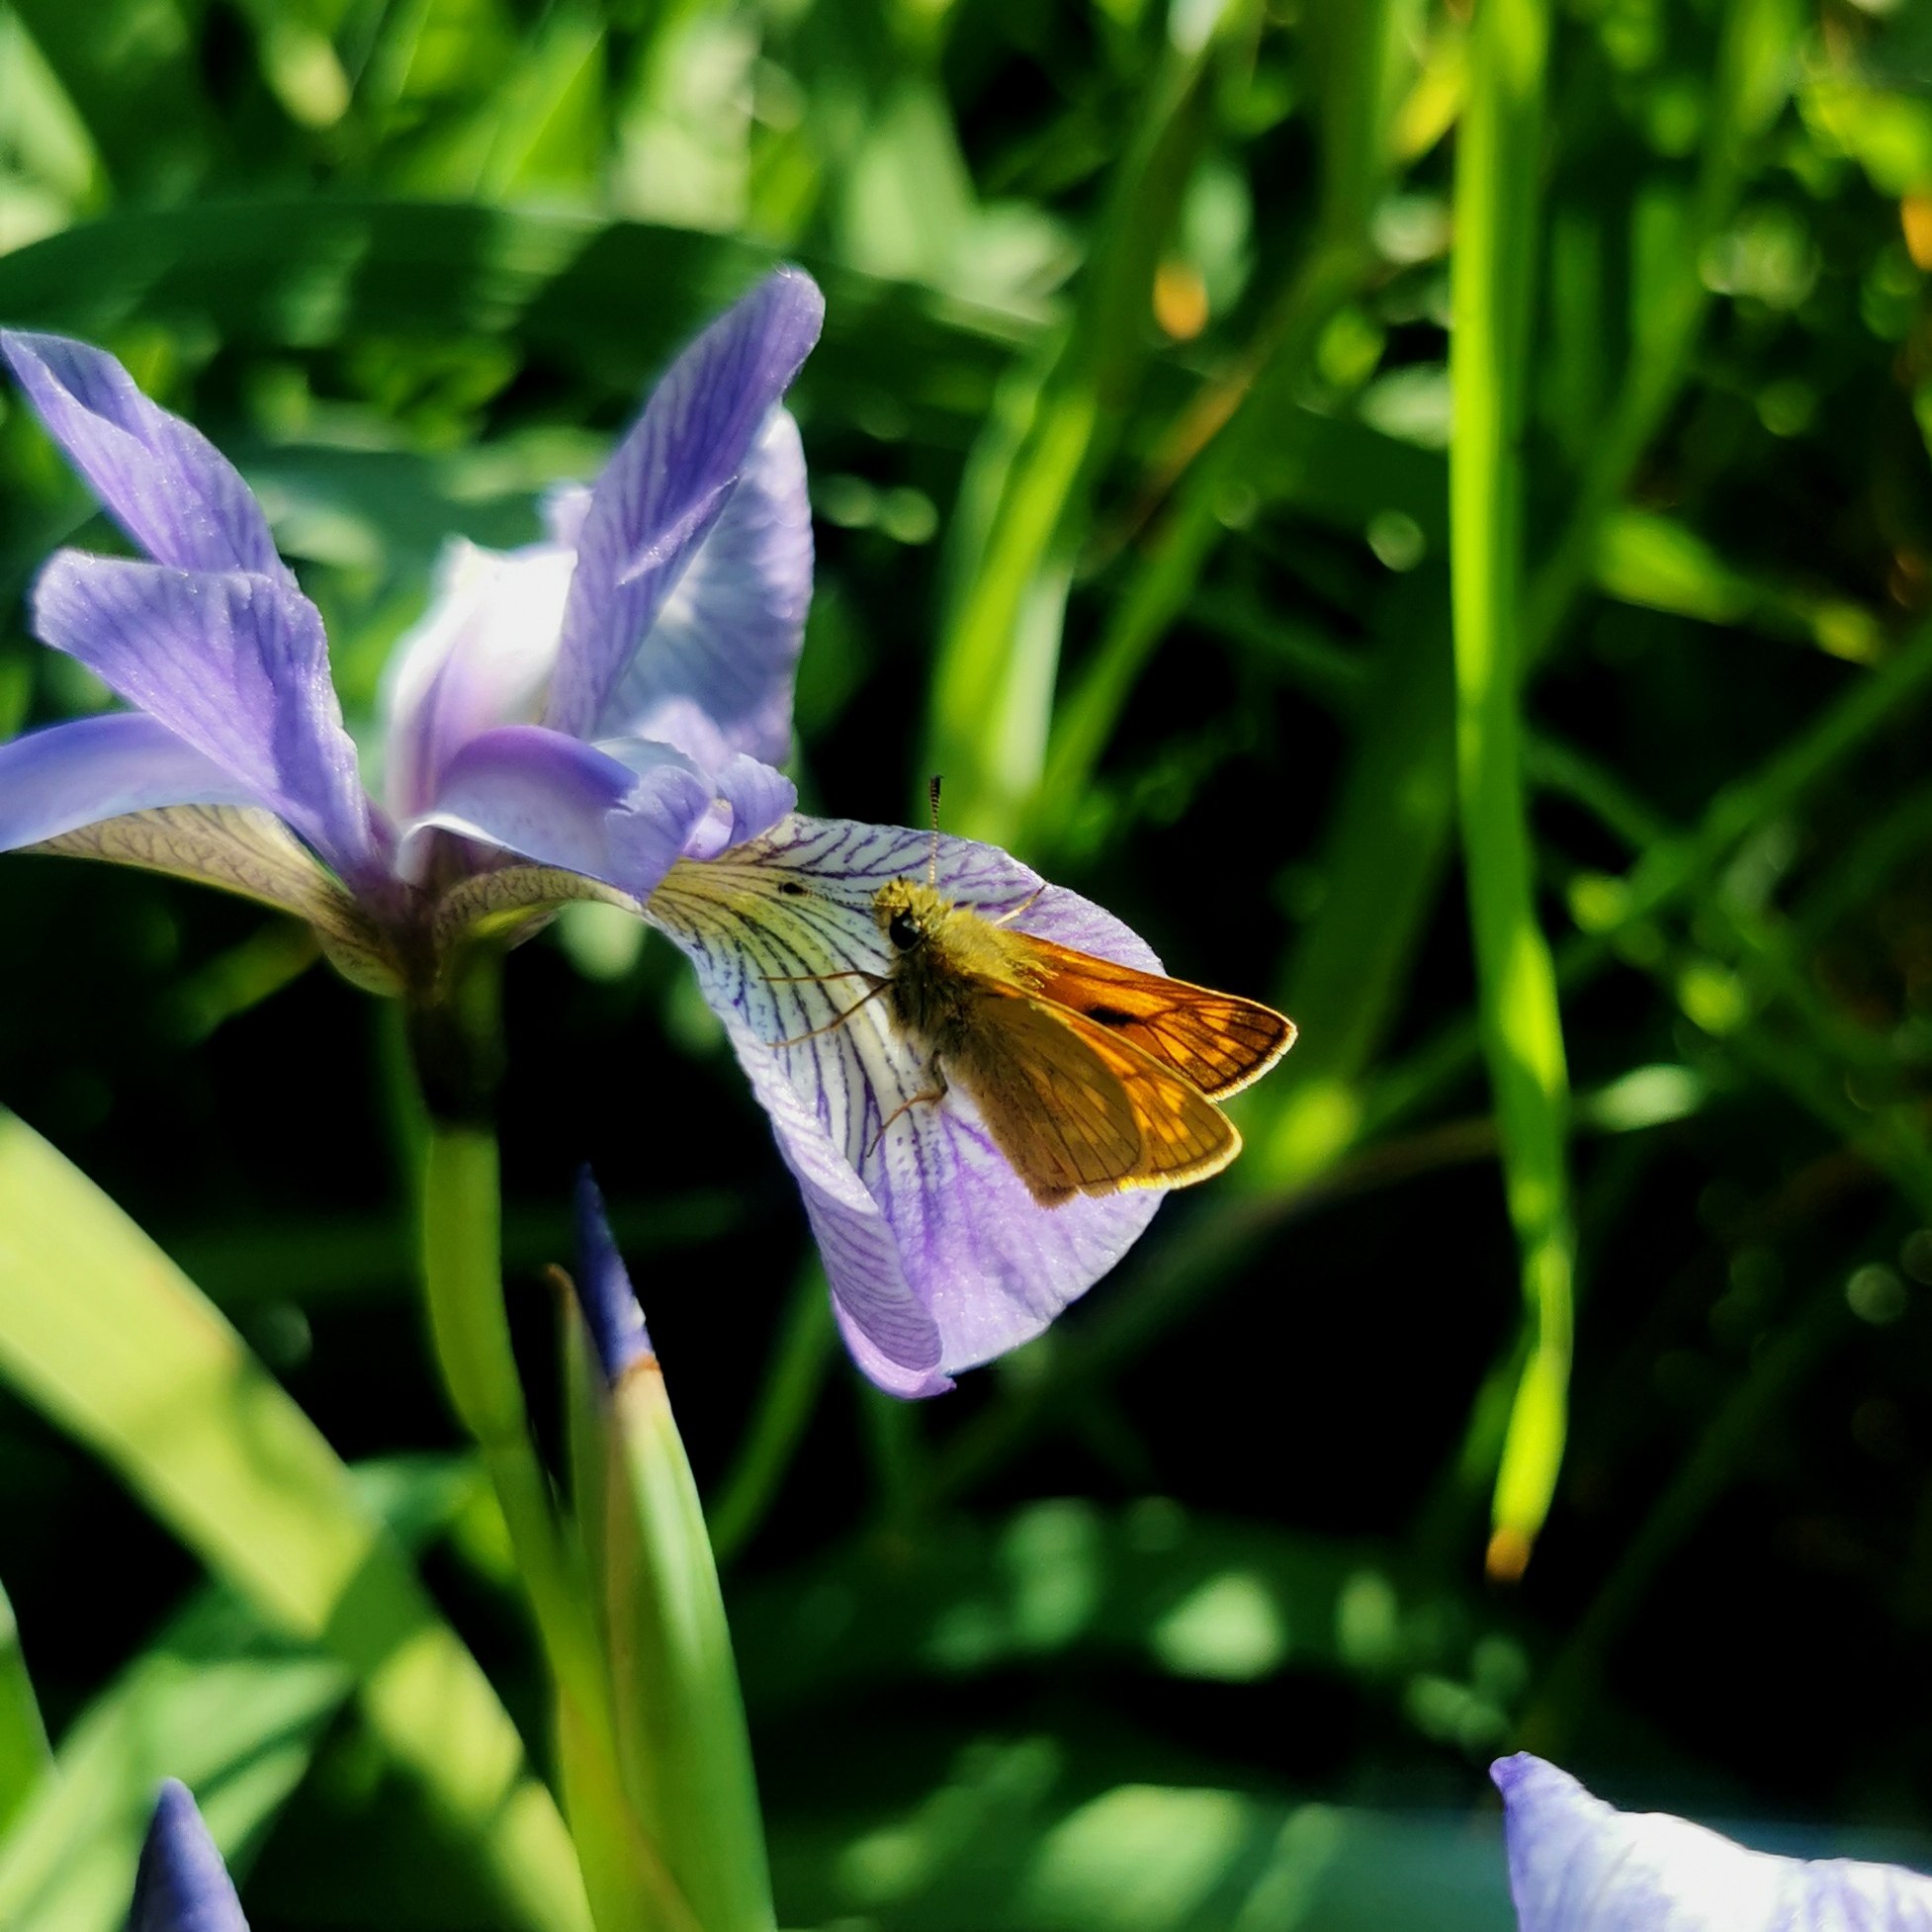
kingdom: Animalia
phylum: Arthropoda
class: Insecta
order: Lepidoptera
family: Hesperiidae
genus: Ochlodes
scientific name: Ochlodes venata
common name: Stor bredpande
